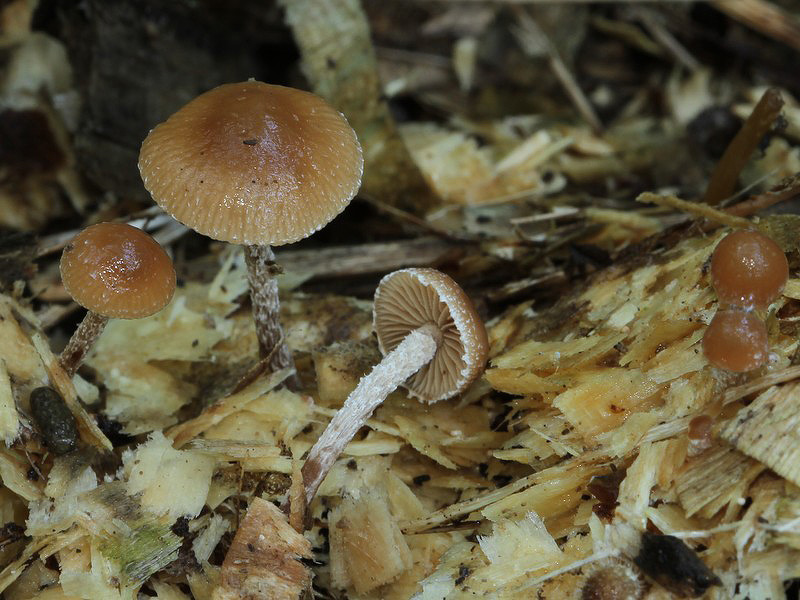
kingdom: Fungi
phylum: Basidiomycota
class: Agaricomycetes
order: Agaricales
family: Strophariaceae
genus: Deconica
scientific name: Deconica crobula
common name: træflis-stråhat
